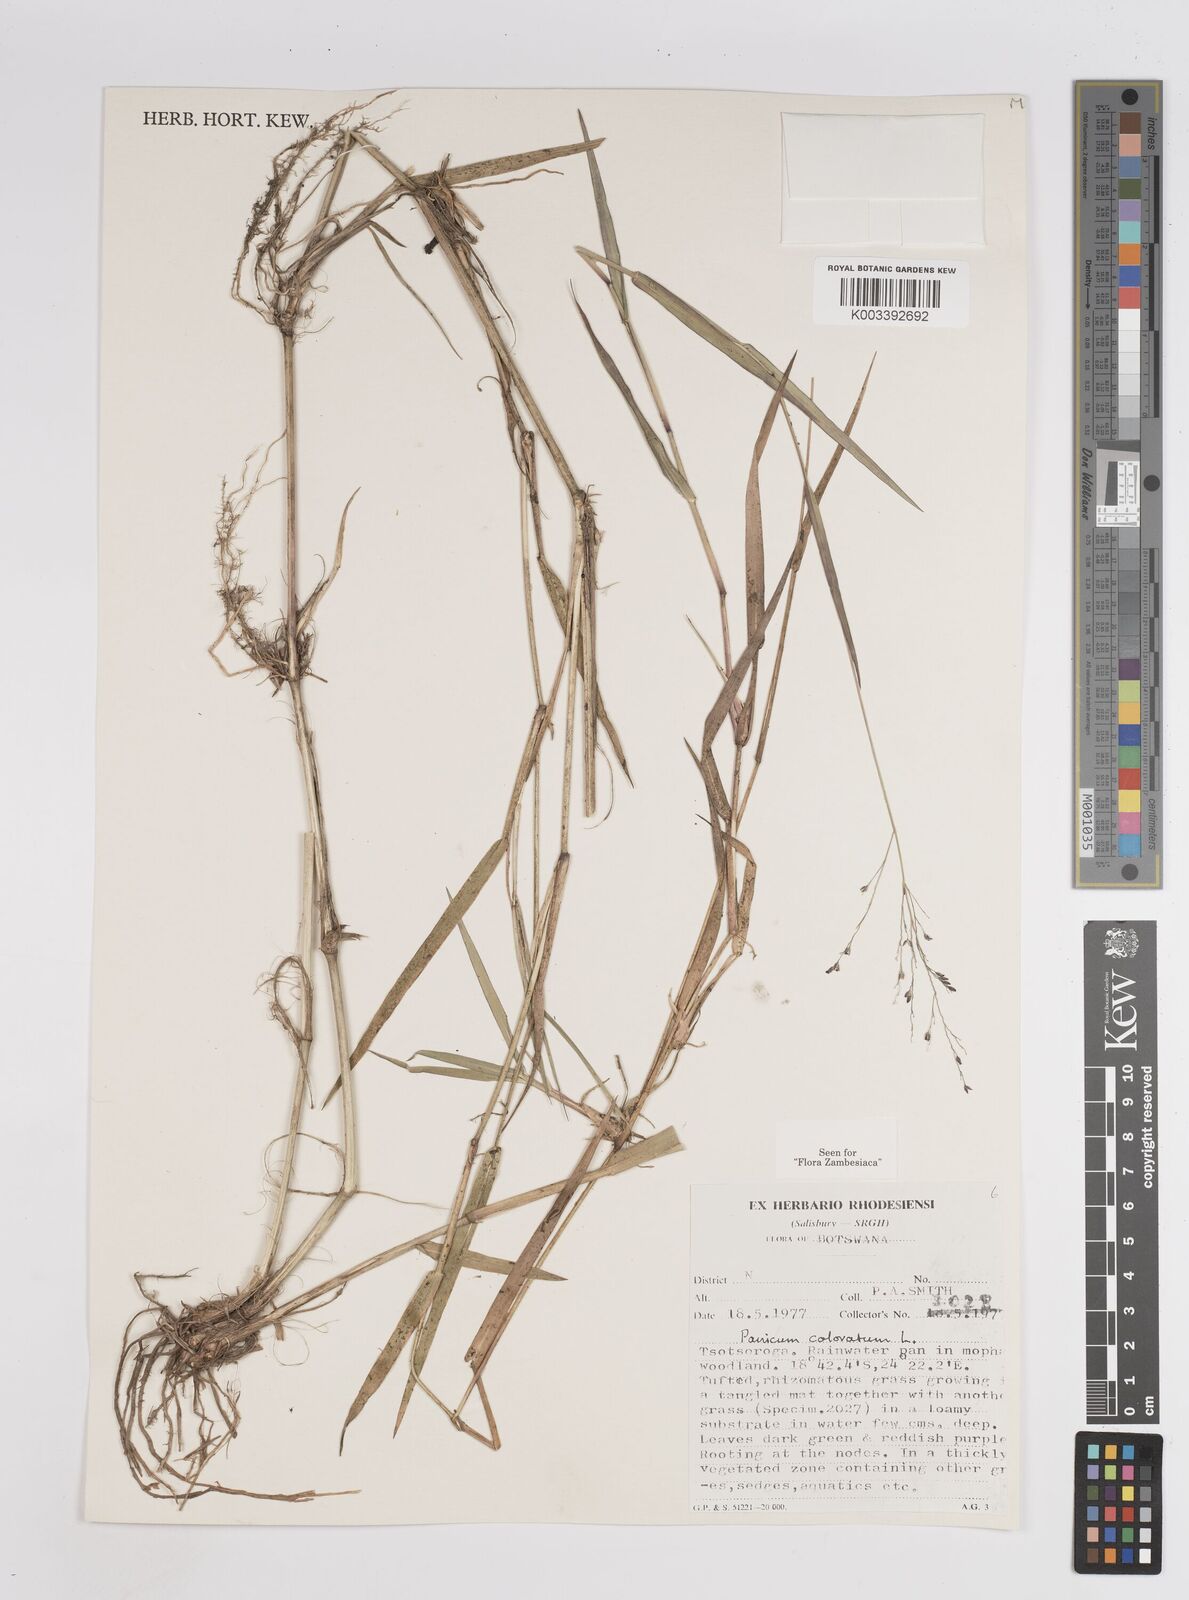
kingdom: Plantae
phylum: Tracheophyta
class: Liliopsida
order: Poales
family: Poaceae
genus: Panicum
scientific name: Panicum coloratum
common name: Kleingrass
